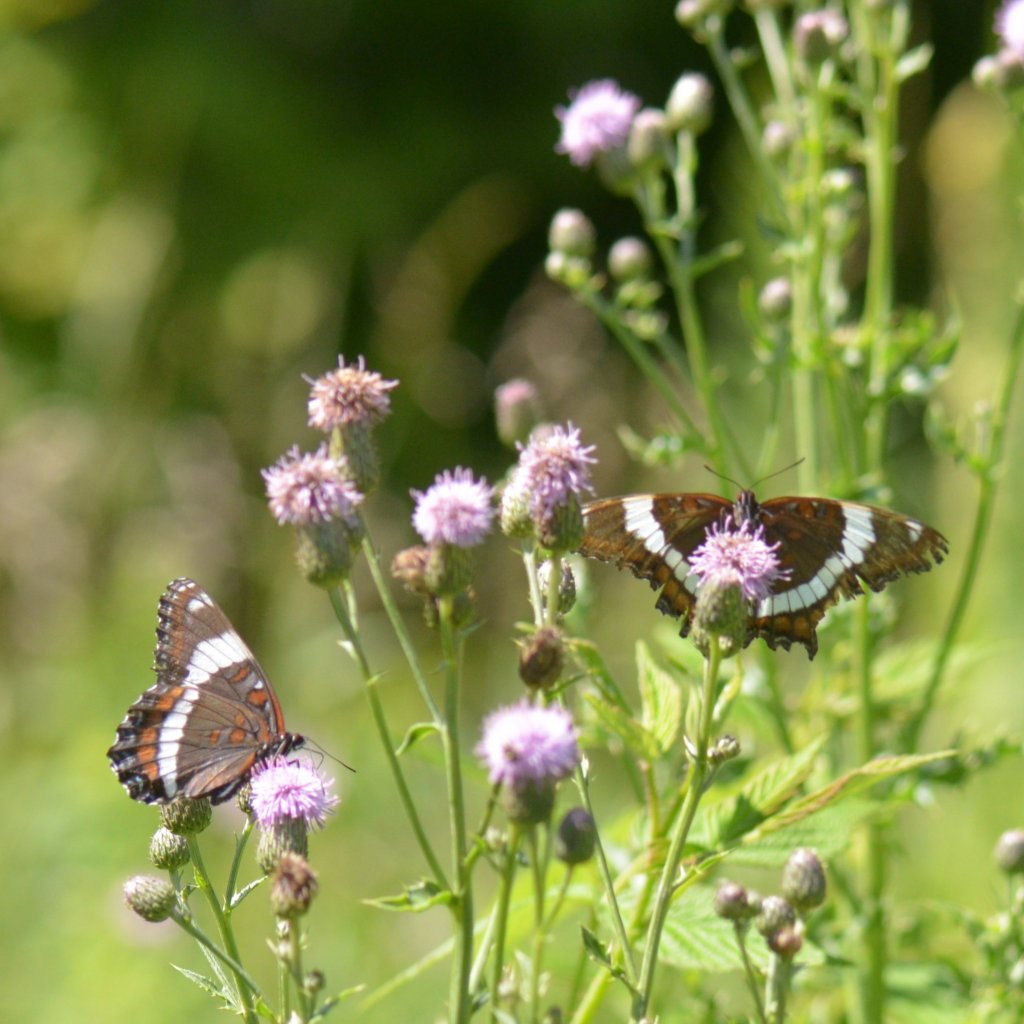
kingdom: Animalia
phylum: Arthropoda
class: Insecta
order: Lepidoptera
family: Nymphalidae
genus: Limenitis
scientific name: Limenitis arthemis
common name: Red-spotted Admiral
